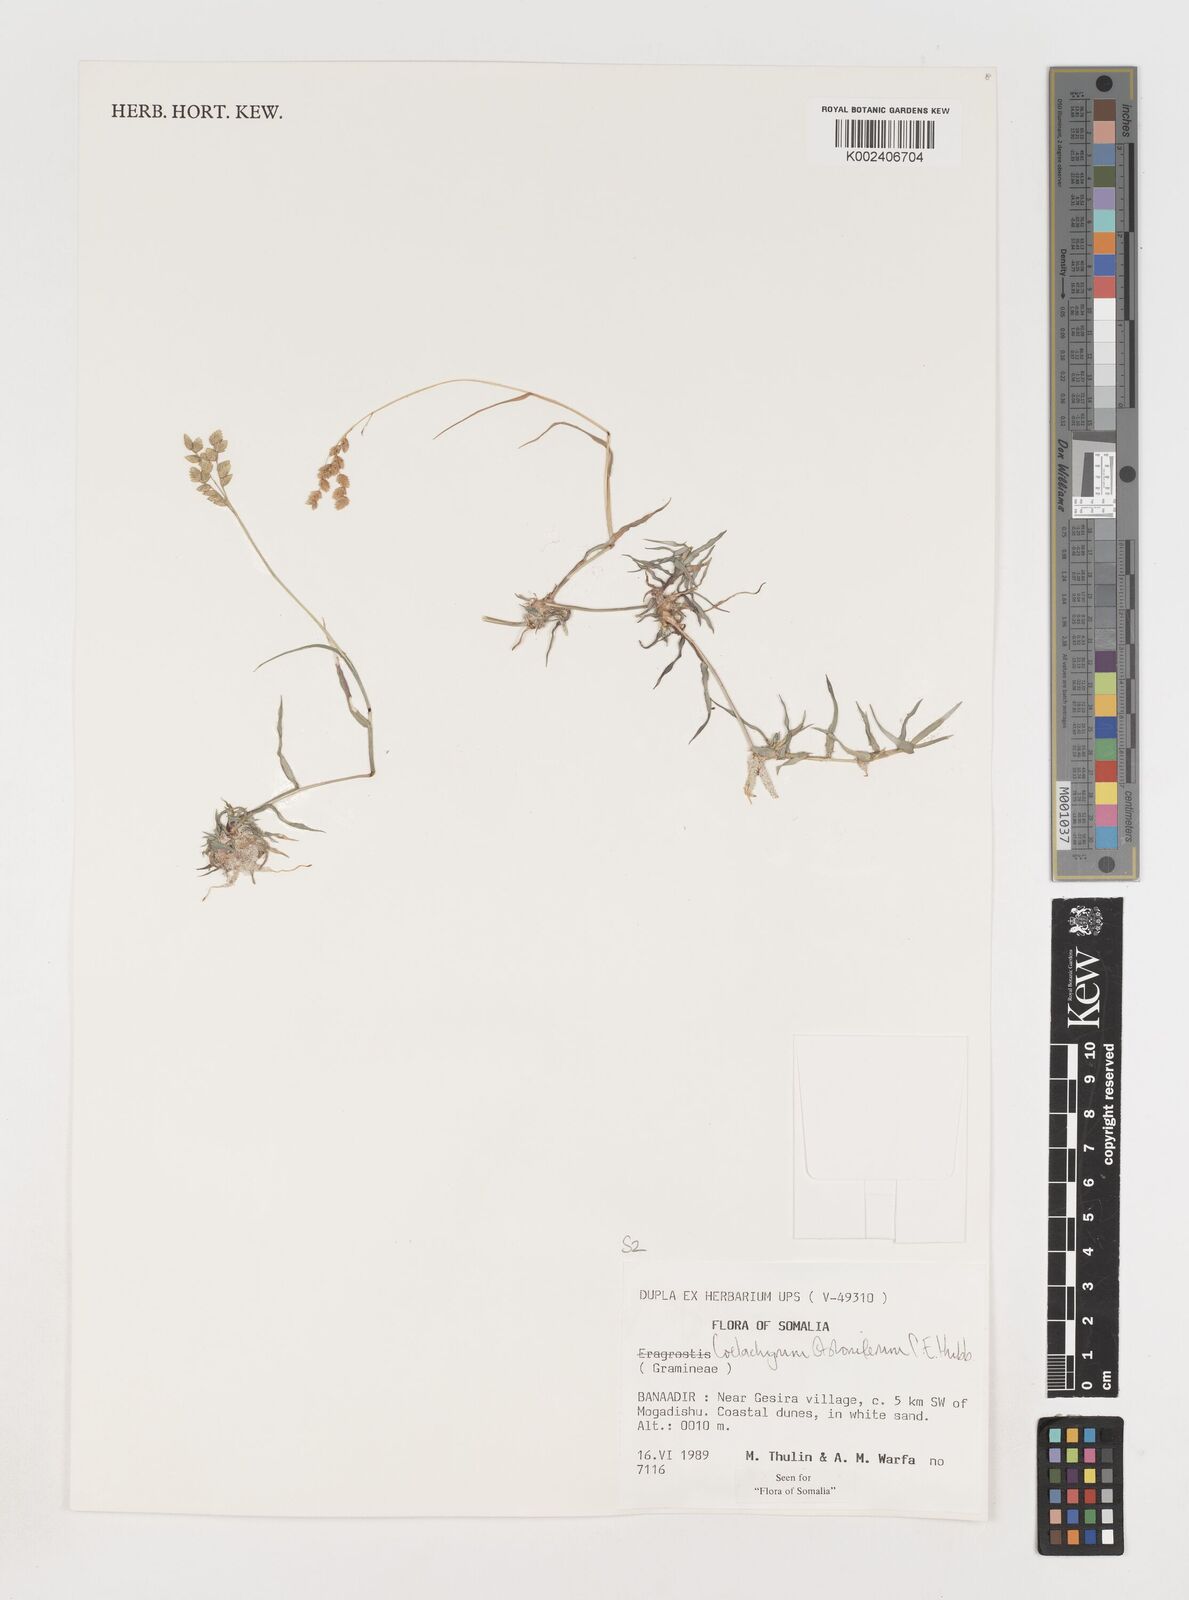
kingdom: Plantae
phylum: Tracheophyta
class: Liliopsida
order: Poales
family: Poaceae
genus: Coelachyrum
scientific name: Coelachyrum piercei
